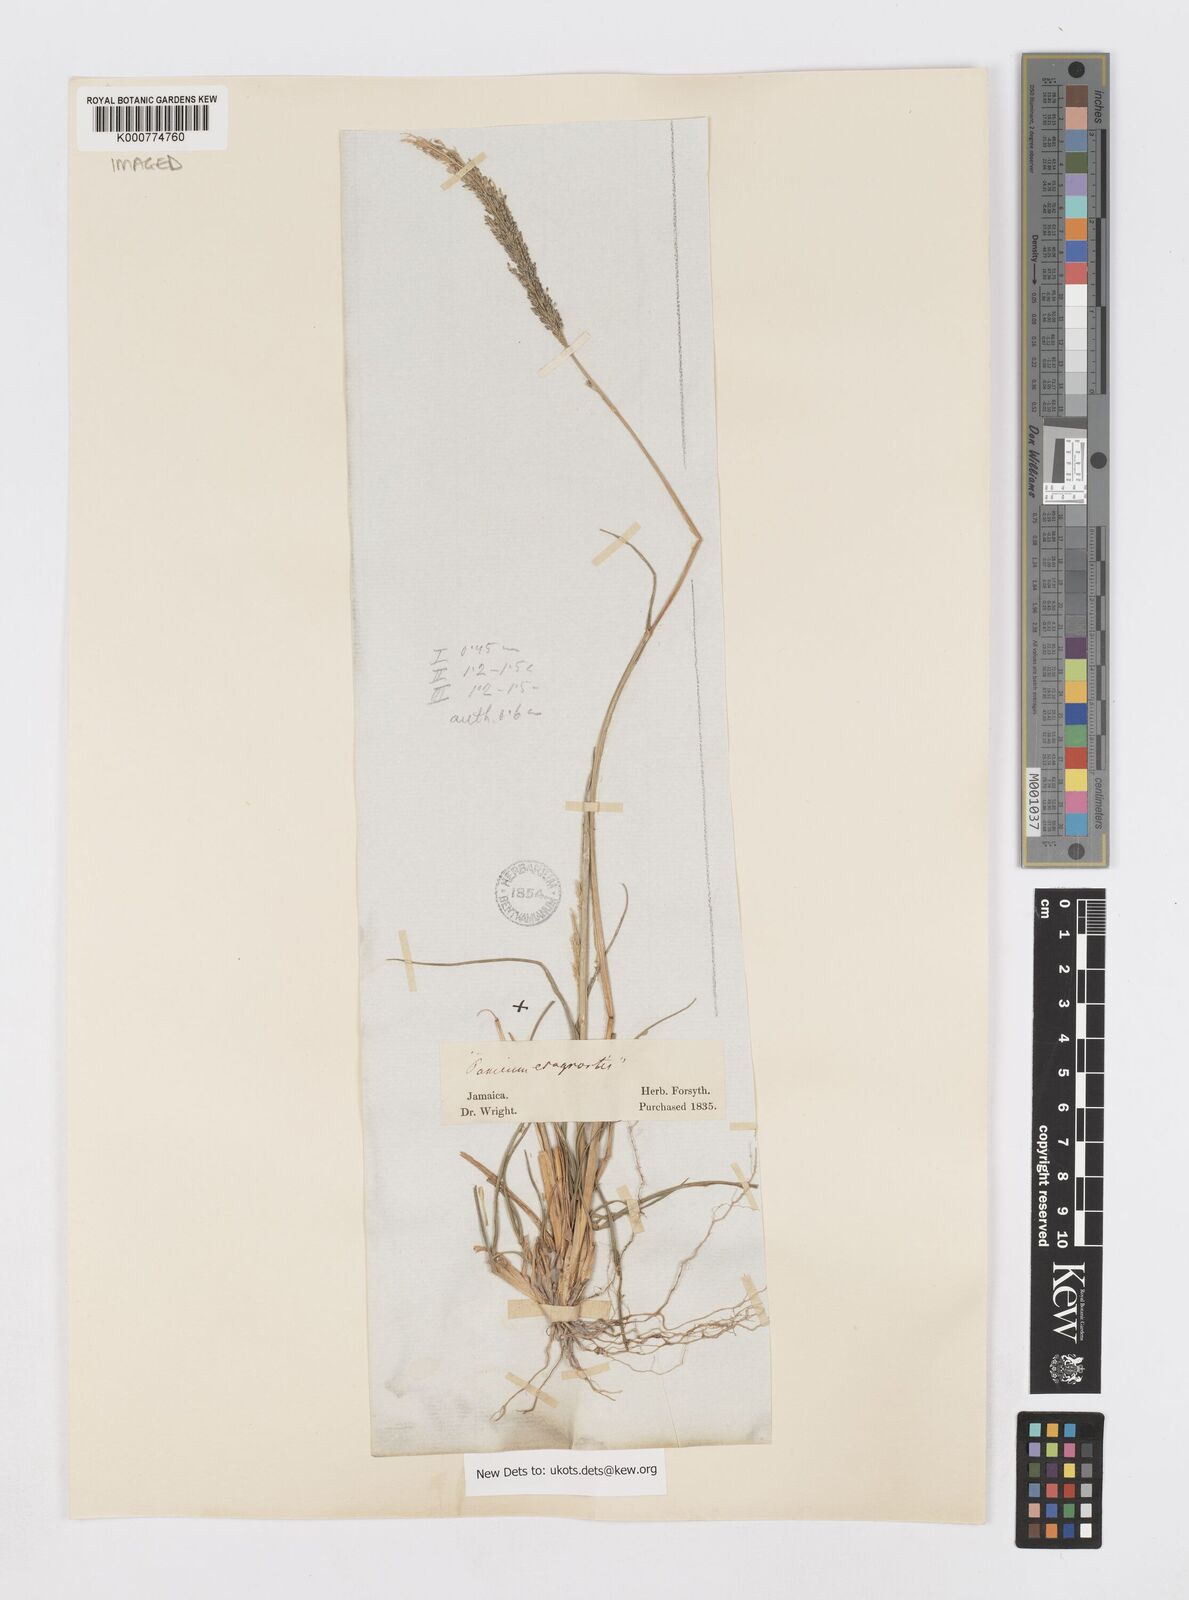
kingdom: Plantae
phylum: Tracheophyta
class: Liliopsida
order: Poales
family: Poaceae
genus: Sporobolus
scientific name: Sporobolus domingensis
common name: Coral dropseed
